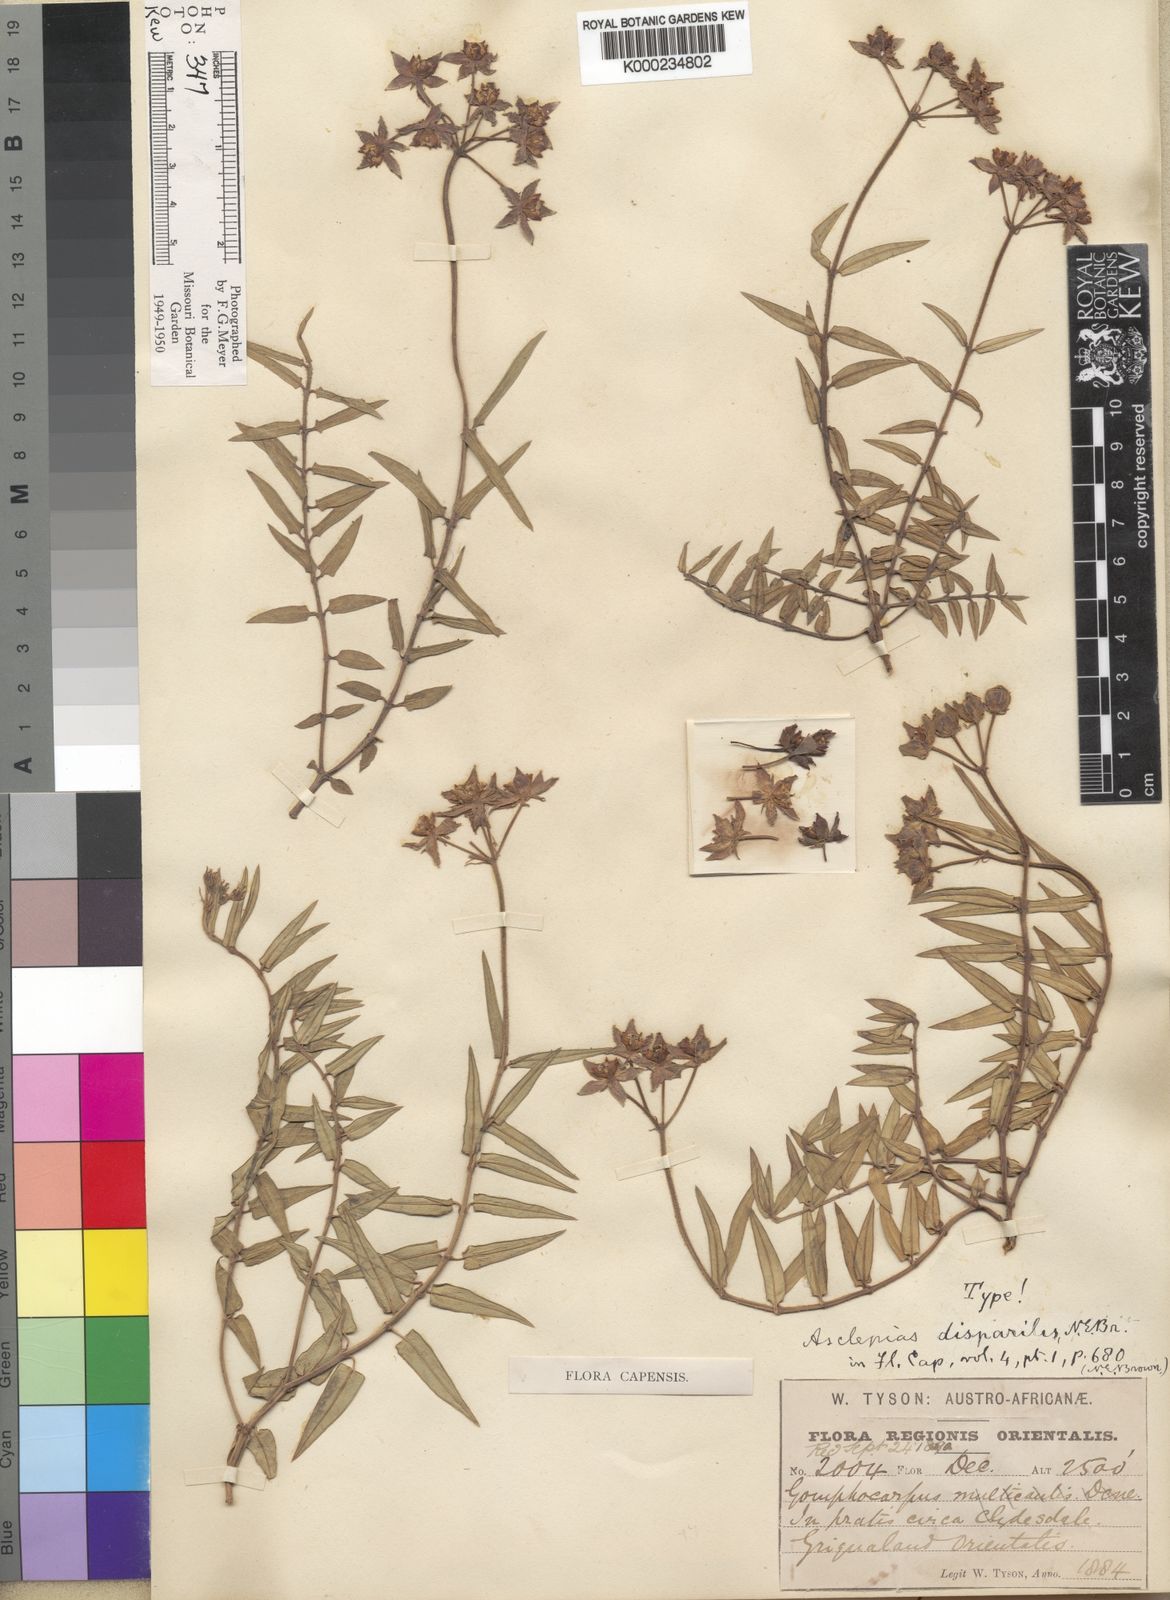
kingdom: Plantae
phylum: Tracheophyta
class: Magnoliopsida
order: Gentianales
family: Apocynaceae
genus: Asclepias
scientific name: Asclepias disparilis
